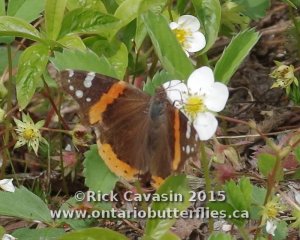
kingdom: Animalia
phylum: Arthropoda
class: Insecta
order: Lepidoptera
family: Nymphalidae
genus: Vanessa
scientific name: Vanessa atalanta
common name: Red Admiral
